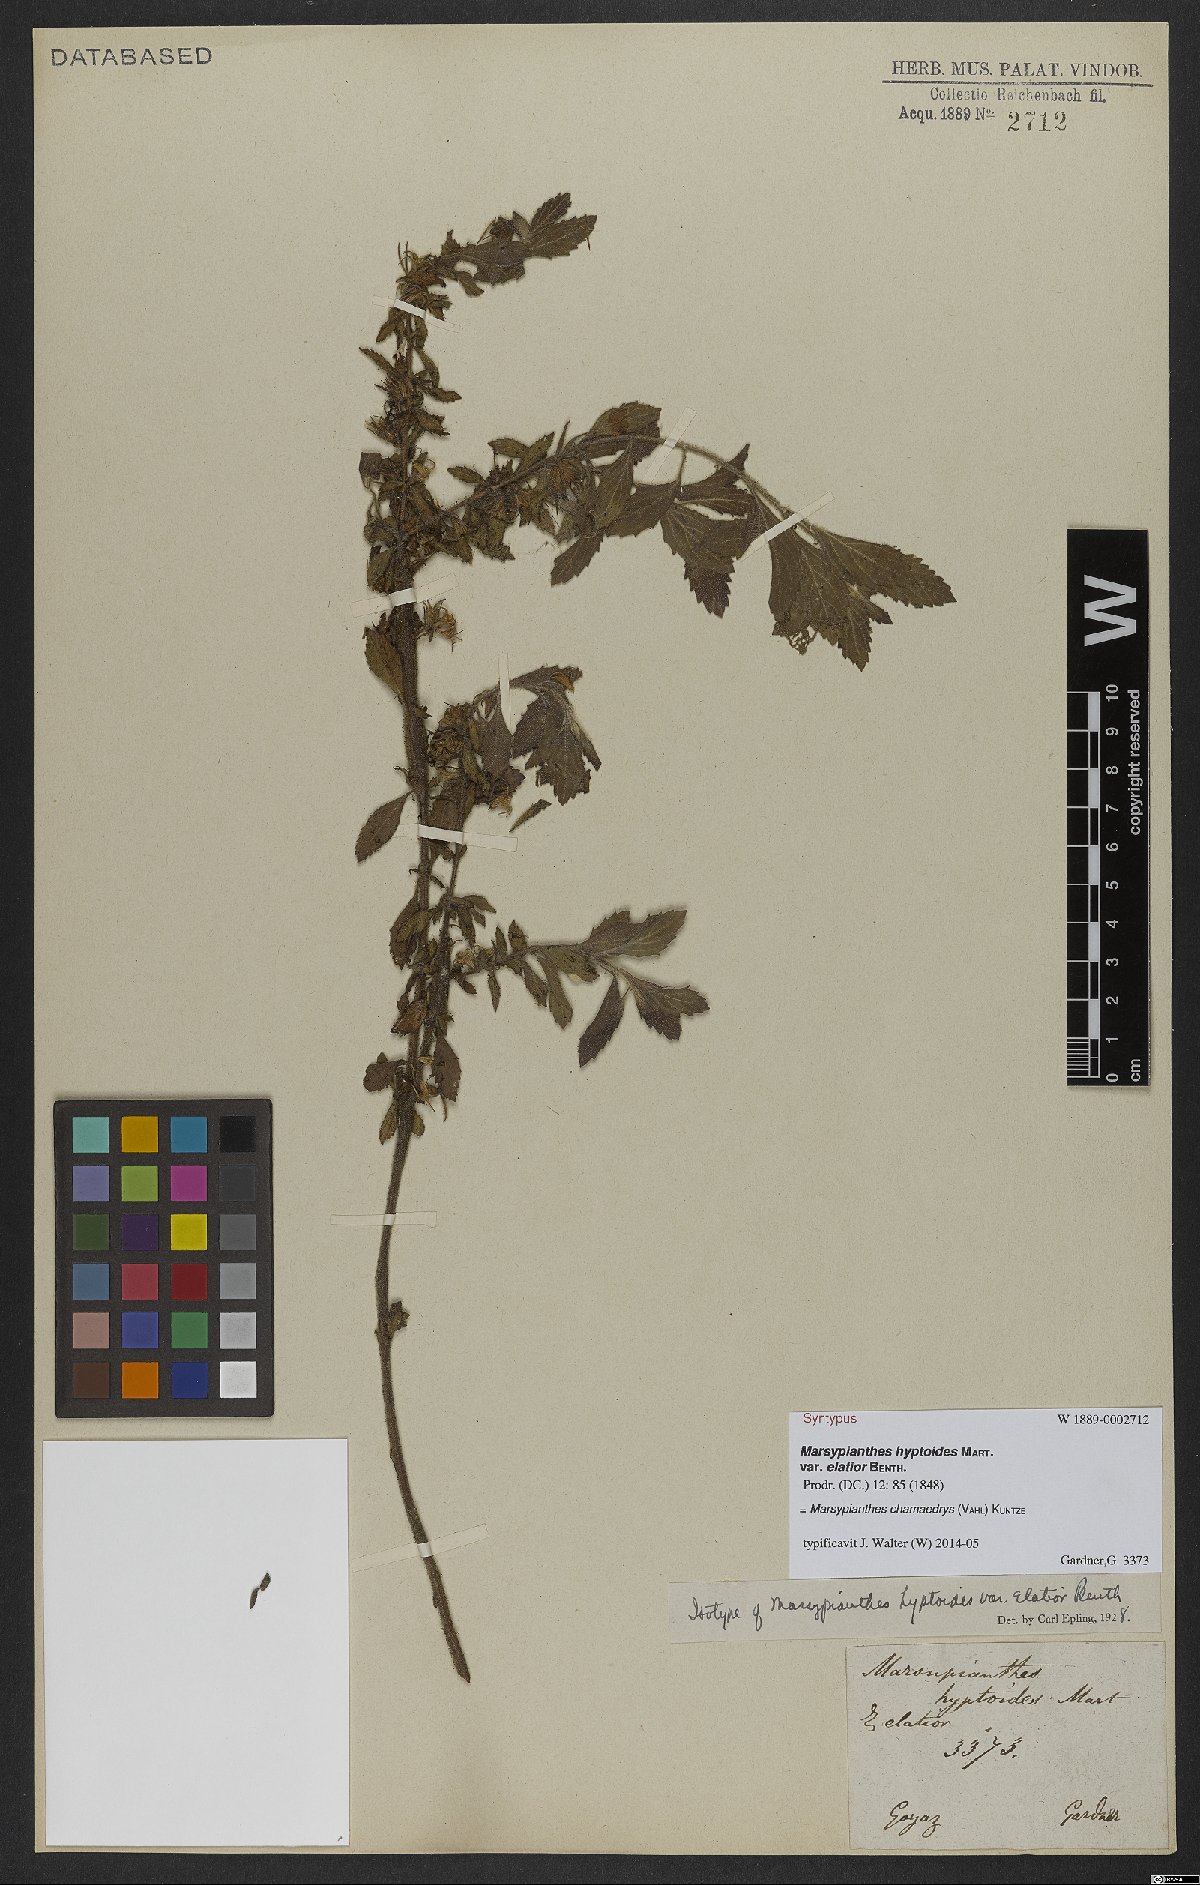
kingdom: Plantae
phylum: Tracheophyta
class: Magnoliopsida
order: Lamiales
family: Lamiaceae
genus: Marsypianthes
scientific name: Marsypianthes chamaedrys
